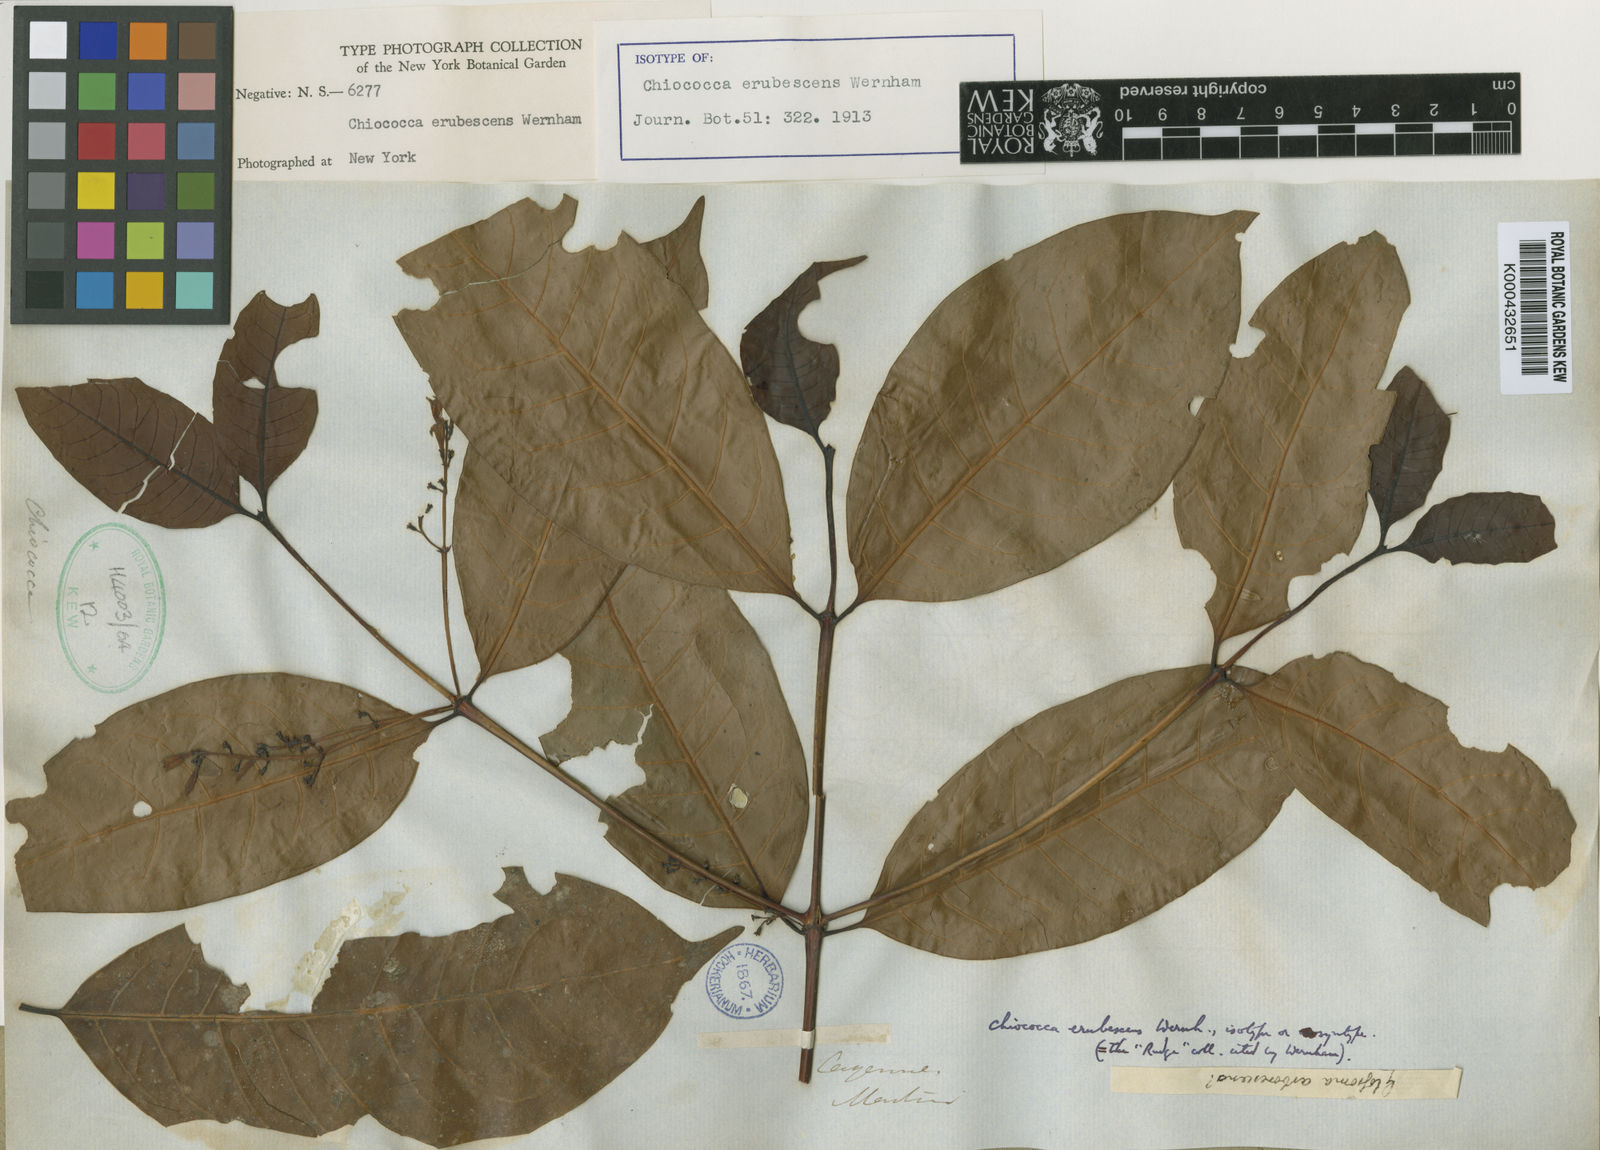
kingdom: Plantae
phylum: Tracheophyta
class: Magnoliopsida
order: Gentianales
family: Rubiaceae
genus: Chiococca
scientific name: Chiococca nitida
